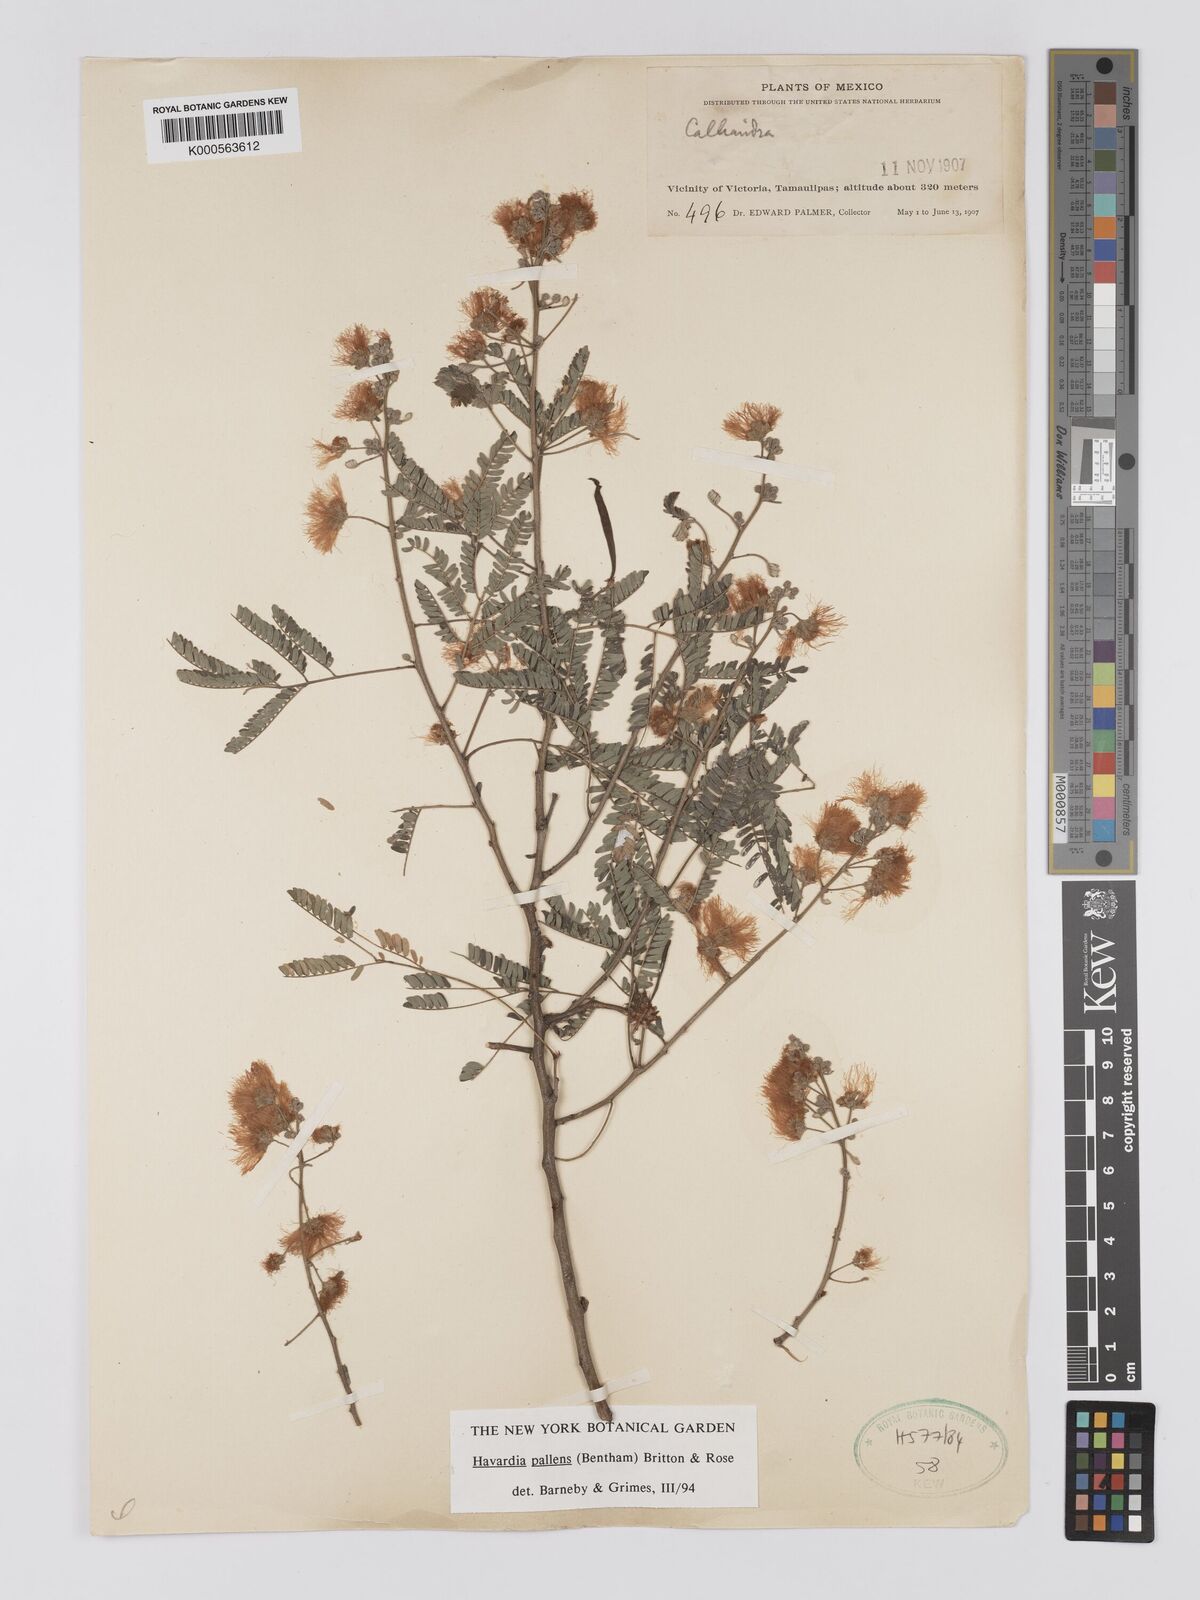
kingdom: Plantae
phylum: Tracheophyta
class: Magnoliopsida
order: Fabales
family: Fabaceae
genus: Havardia
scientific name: Havardia pallens
